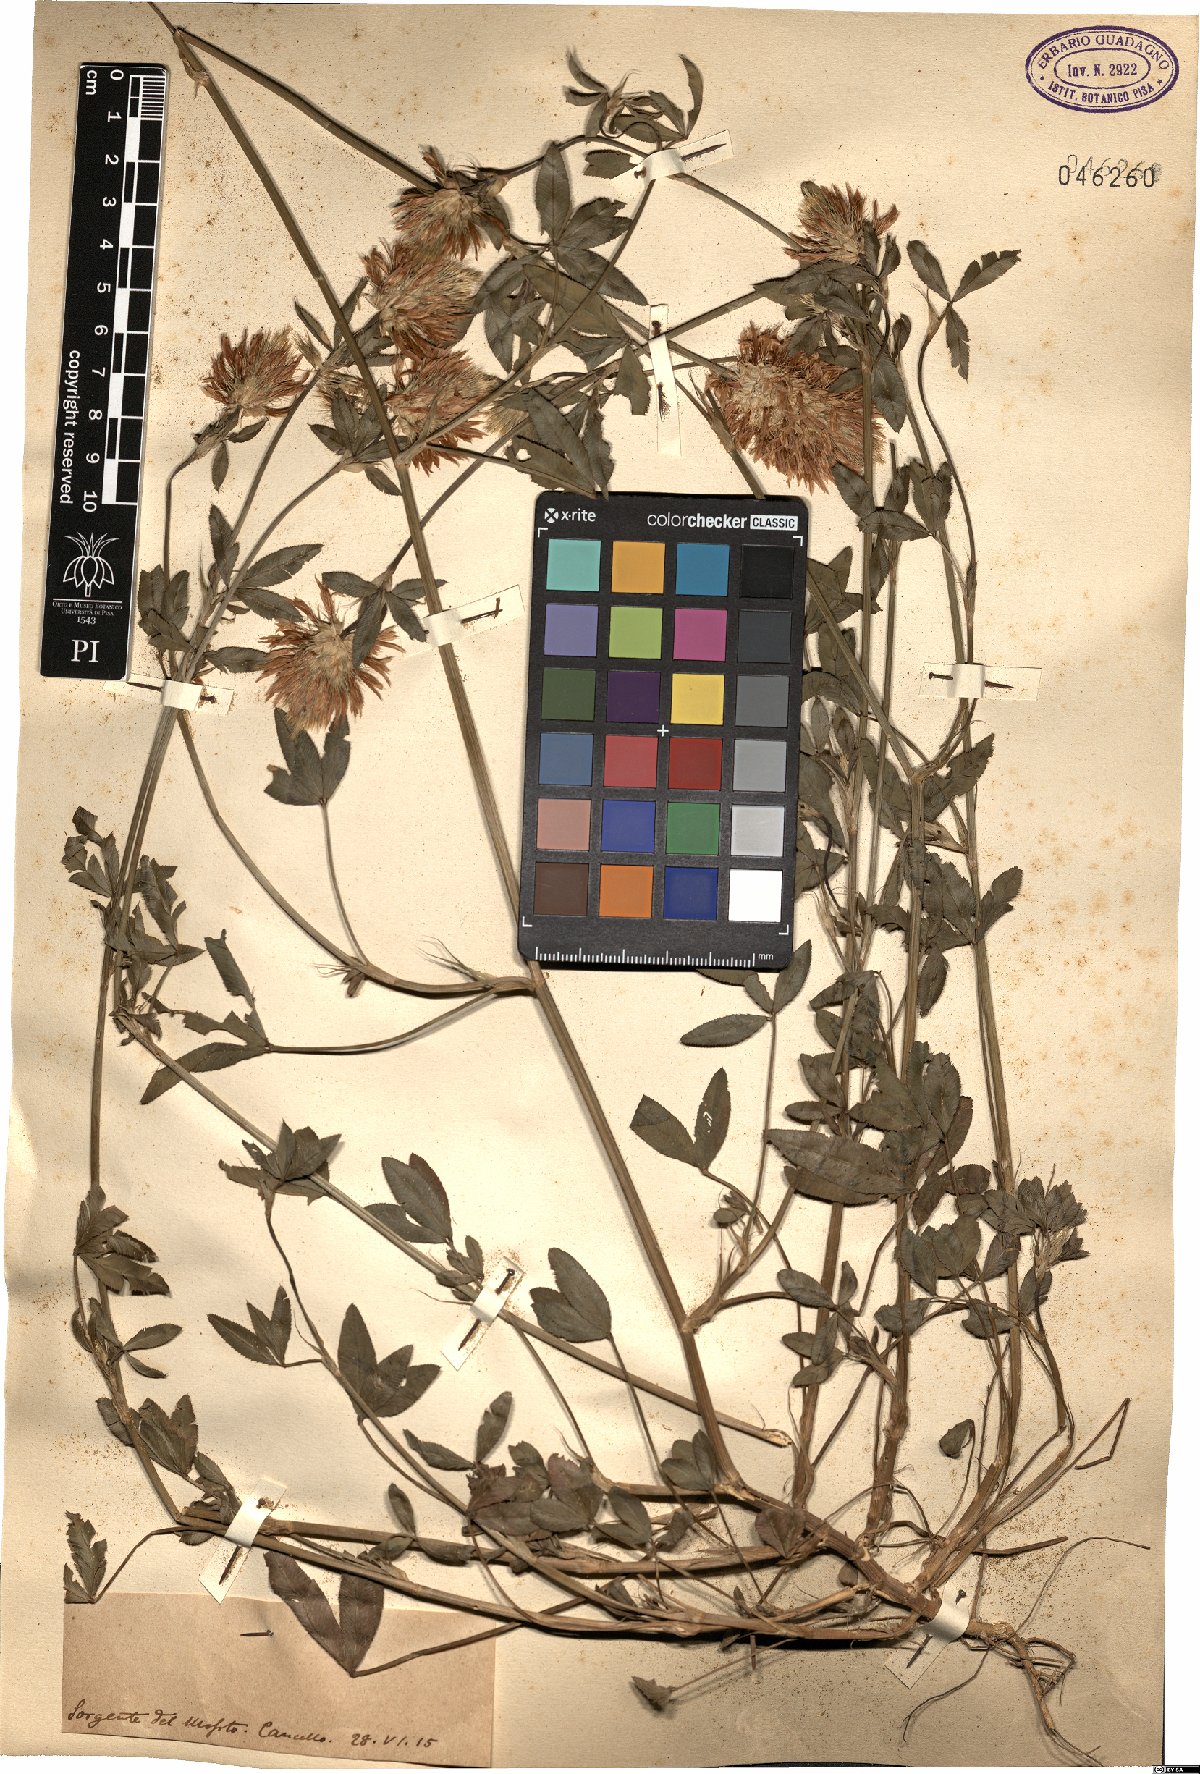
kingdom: Plantae
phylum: Tracheophyta
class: Magnoliopsida
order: Fabales
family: Fabaceae
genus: Trifolium
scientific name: Trifolium
